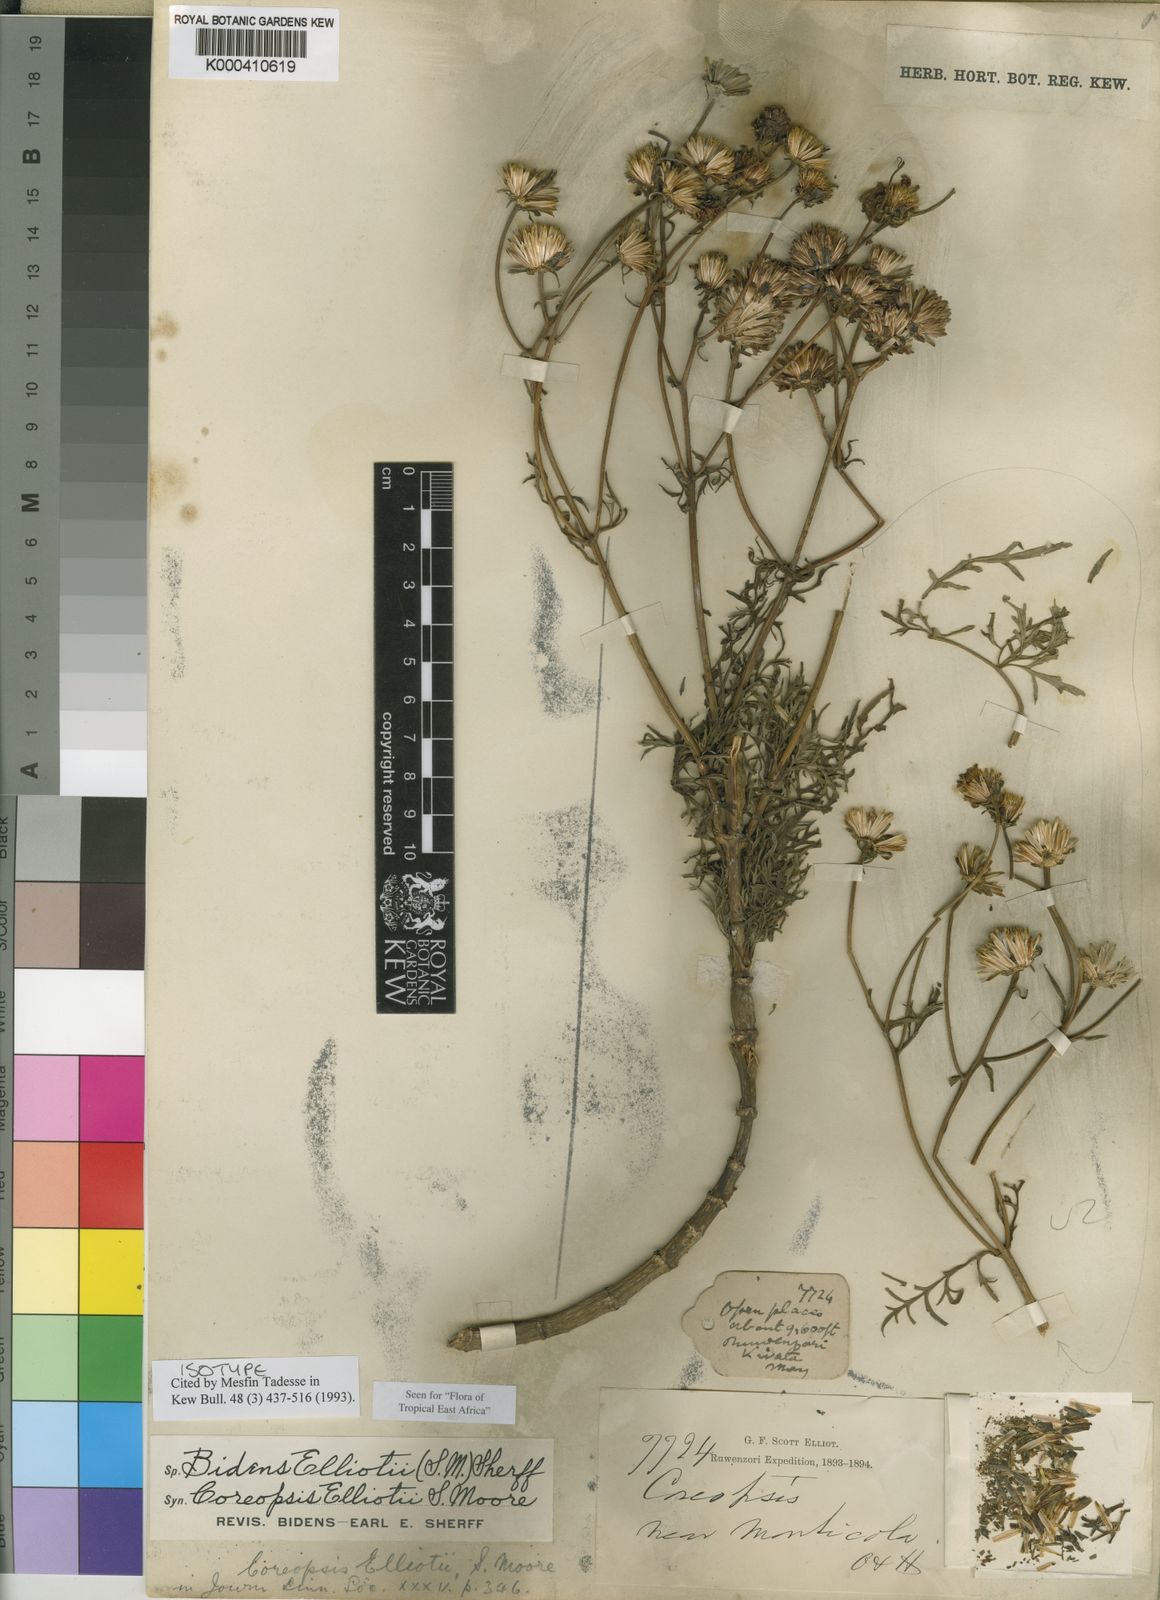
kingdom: Plantae
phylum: Tracheophyta
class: Magnoliopsida
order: Asterales
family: Asteraceae
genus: Bidens
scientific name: Bidens elliotii
